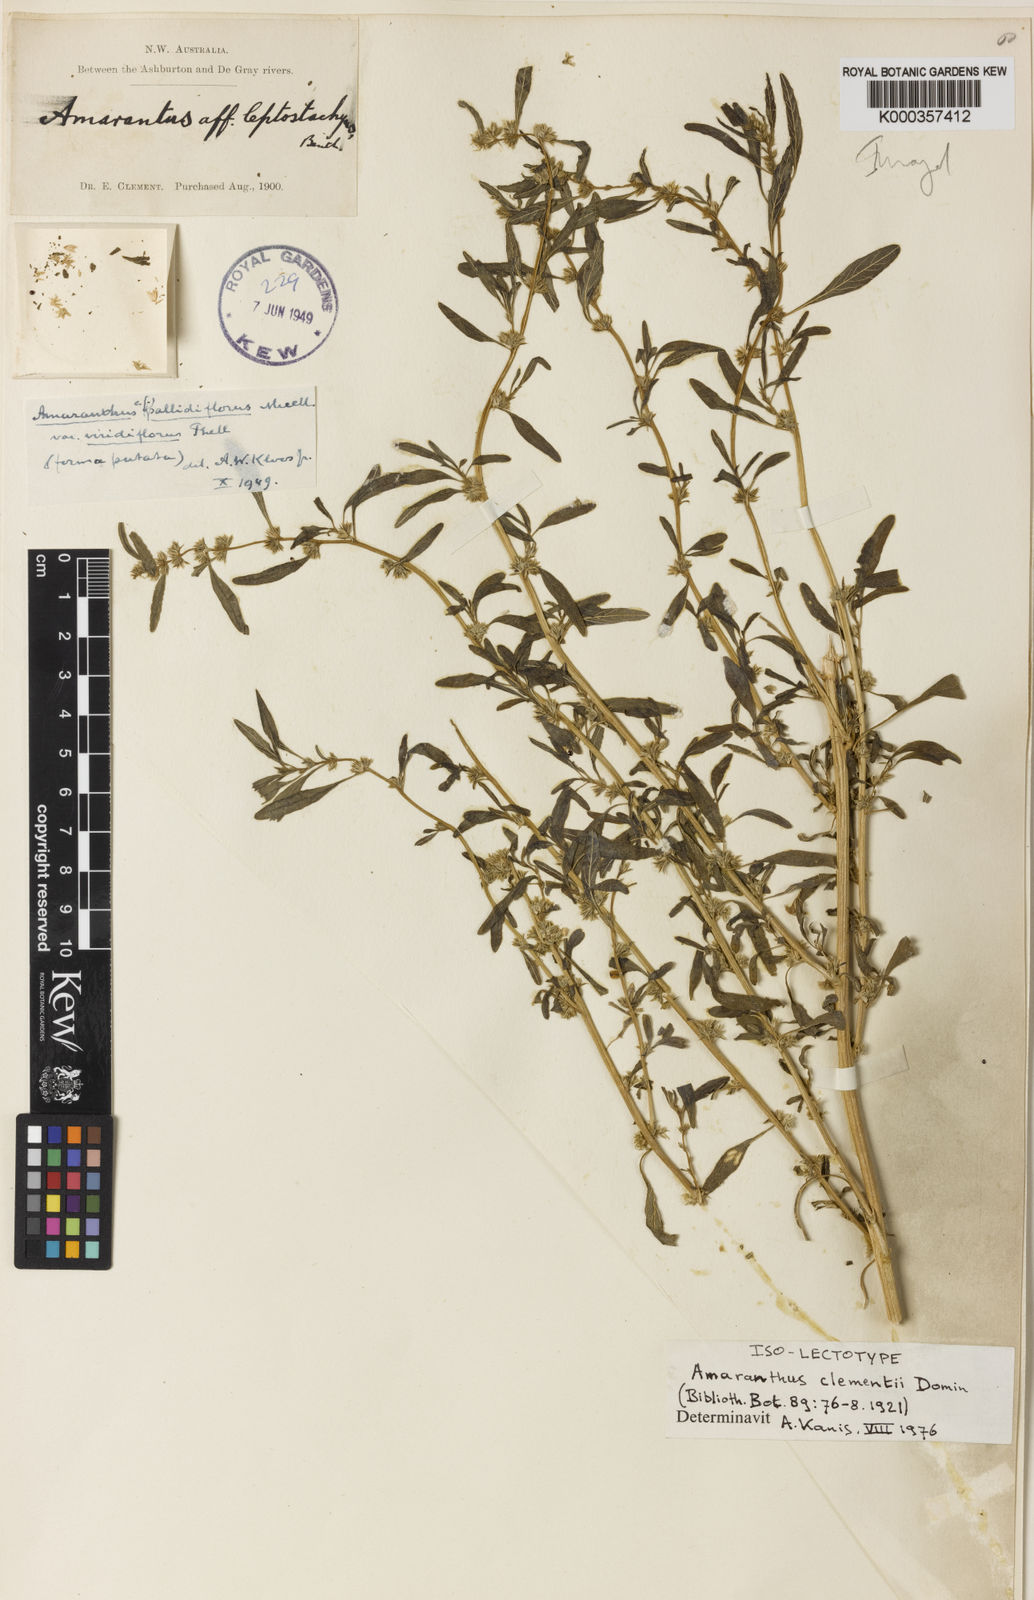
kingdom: Plantae
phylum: Tracheophyta
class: Magnoliopsida
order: Caryophyllales
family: Amaranthaceae
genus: Amaranthus
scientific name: Amaranthus clementii
